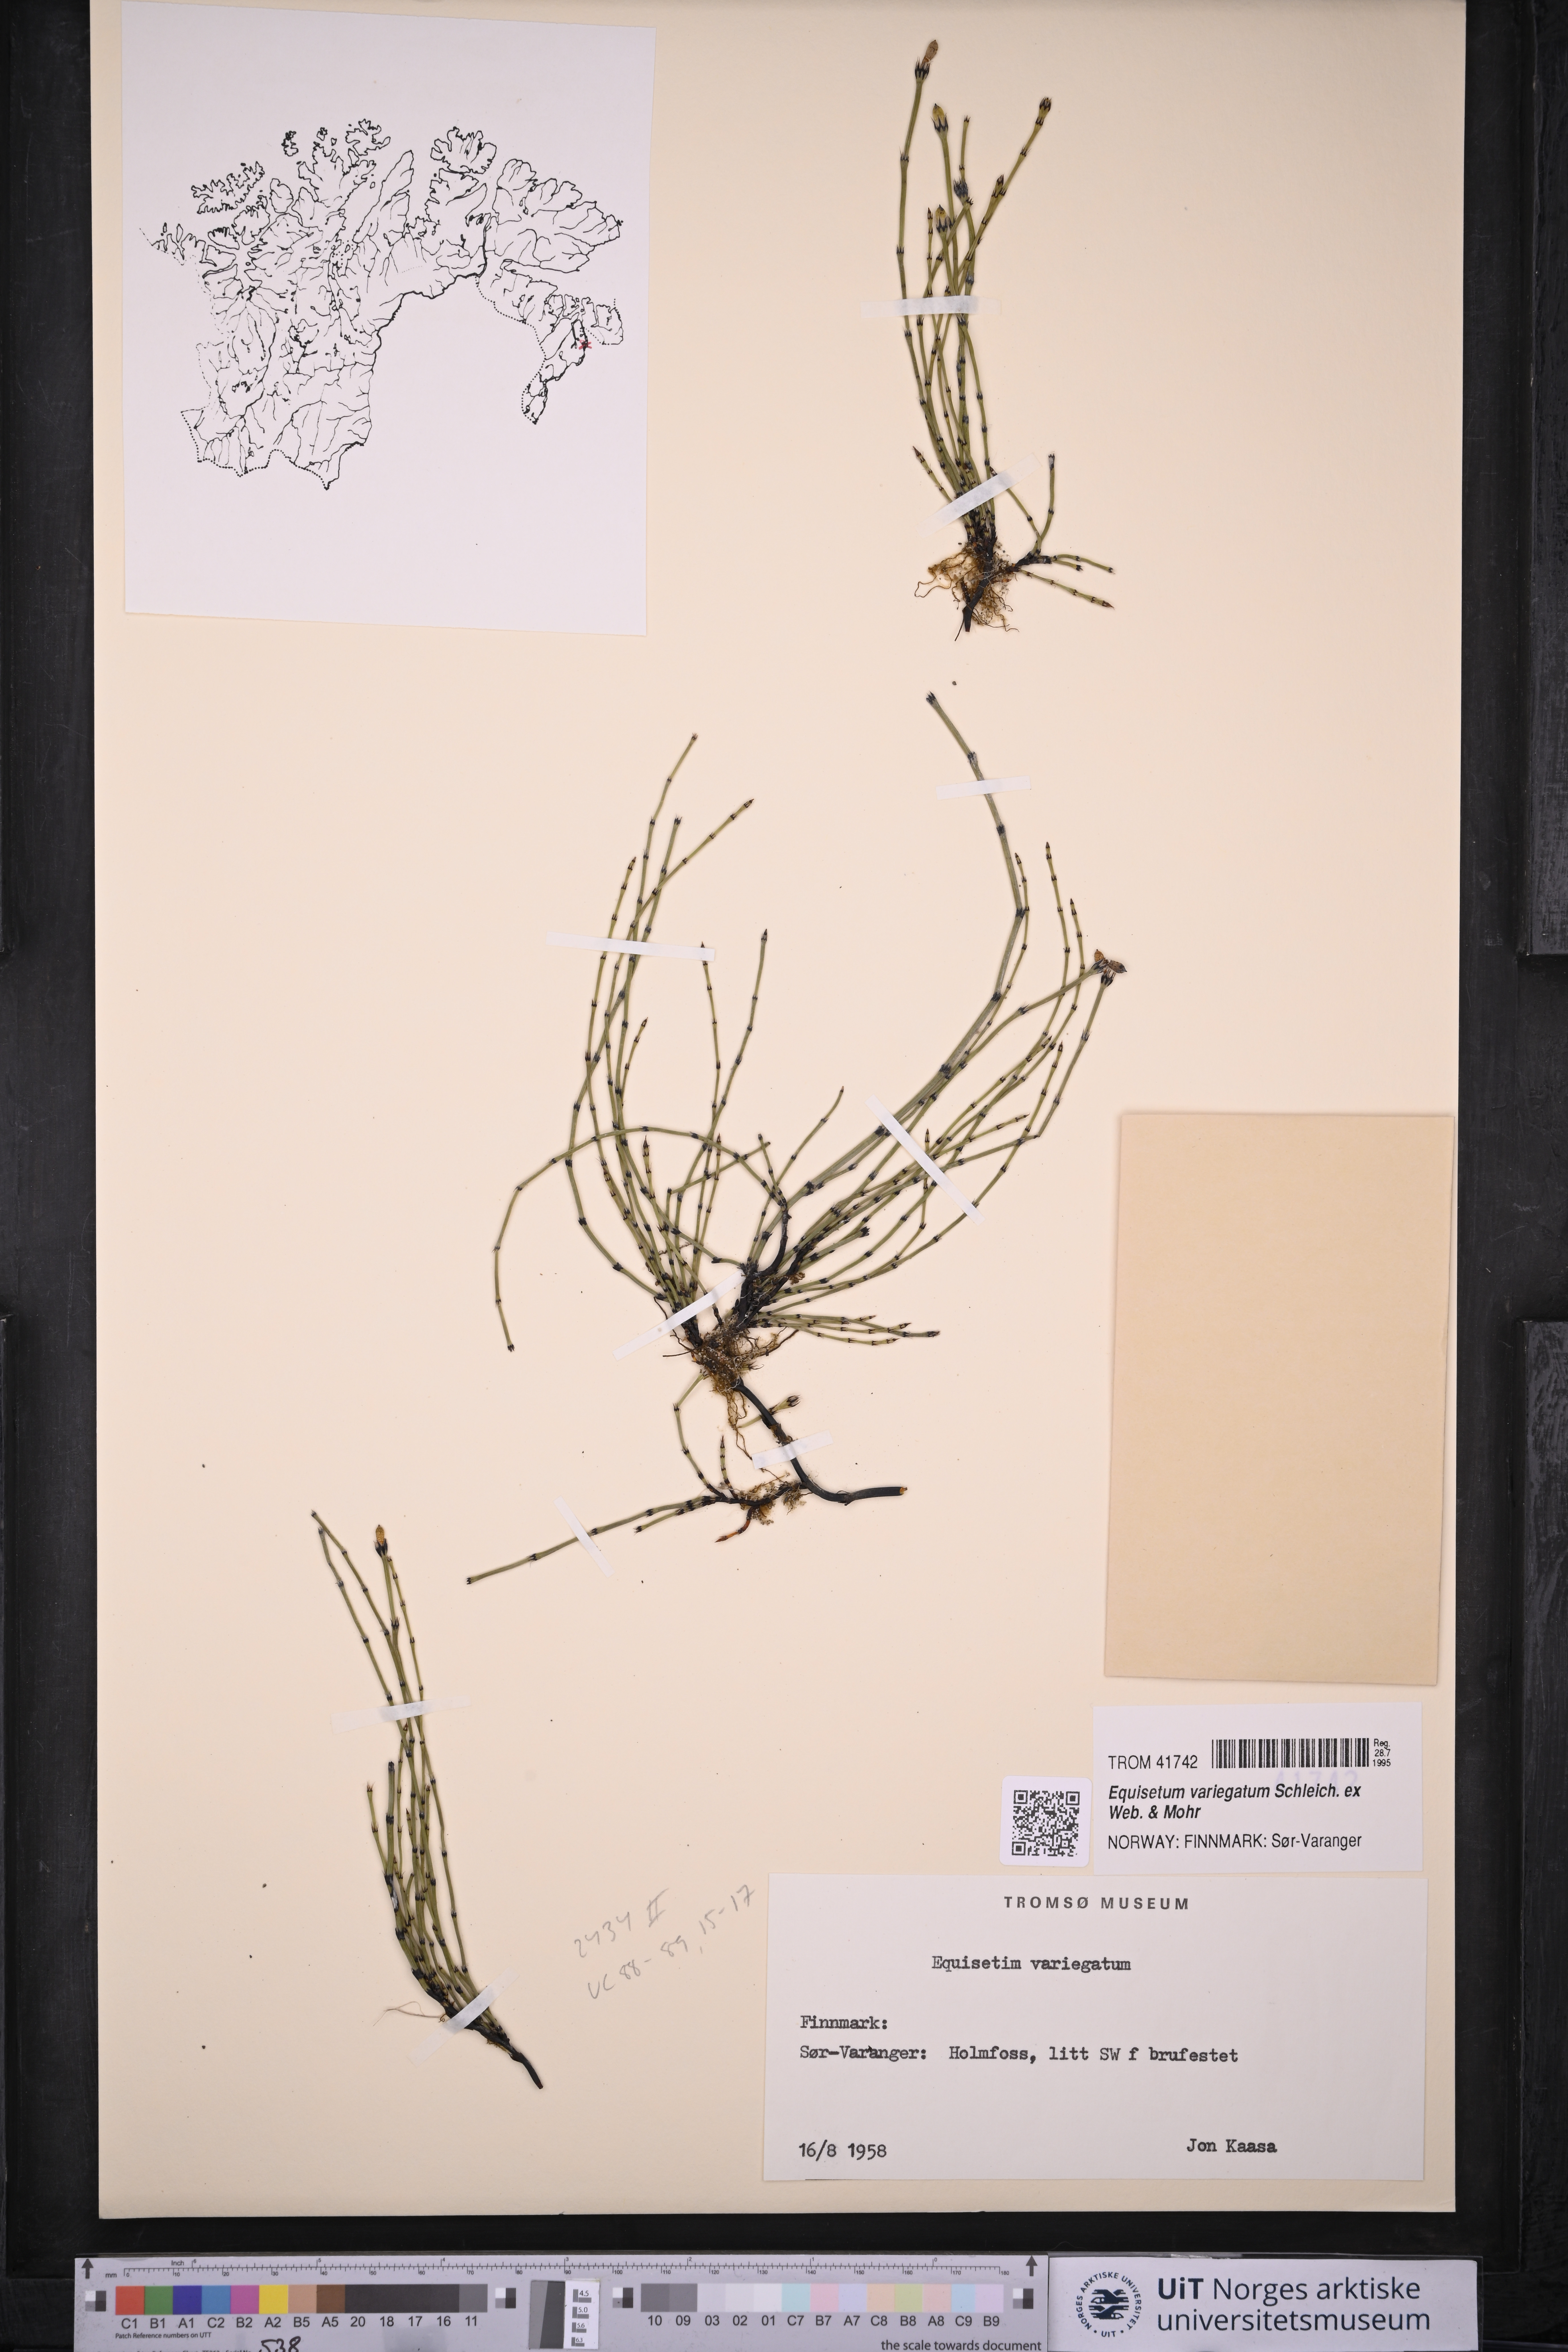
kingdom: Plantae
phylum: Tracheophyta
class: Polypodiopsida
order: Equisetales
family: Equisetaceae
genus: Equisetum
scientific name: Equisetum variegatum
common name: Variegated horsetail
